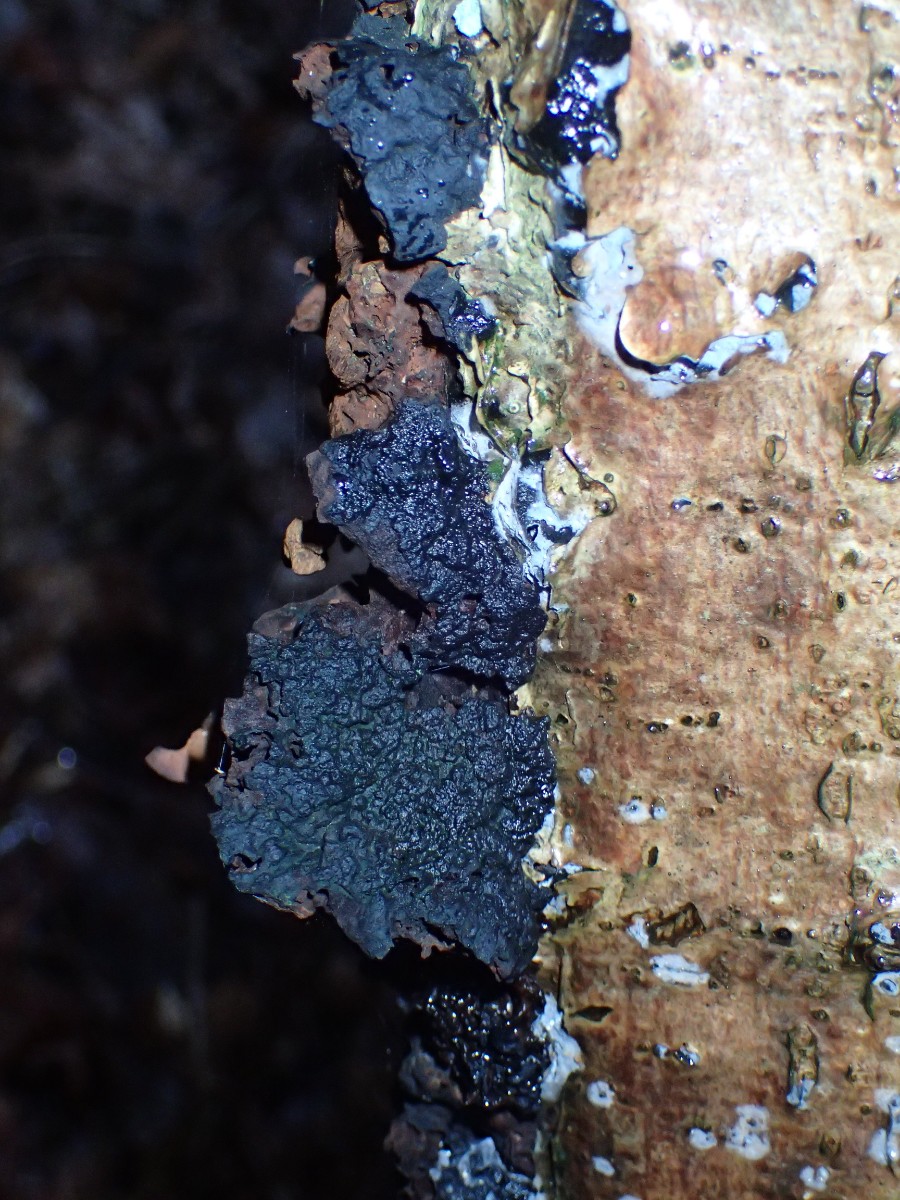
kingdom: Fungi
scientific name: Fungi
